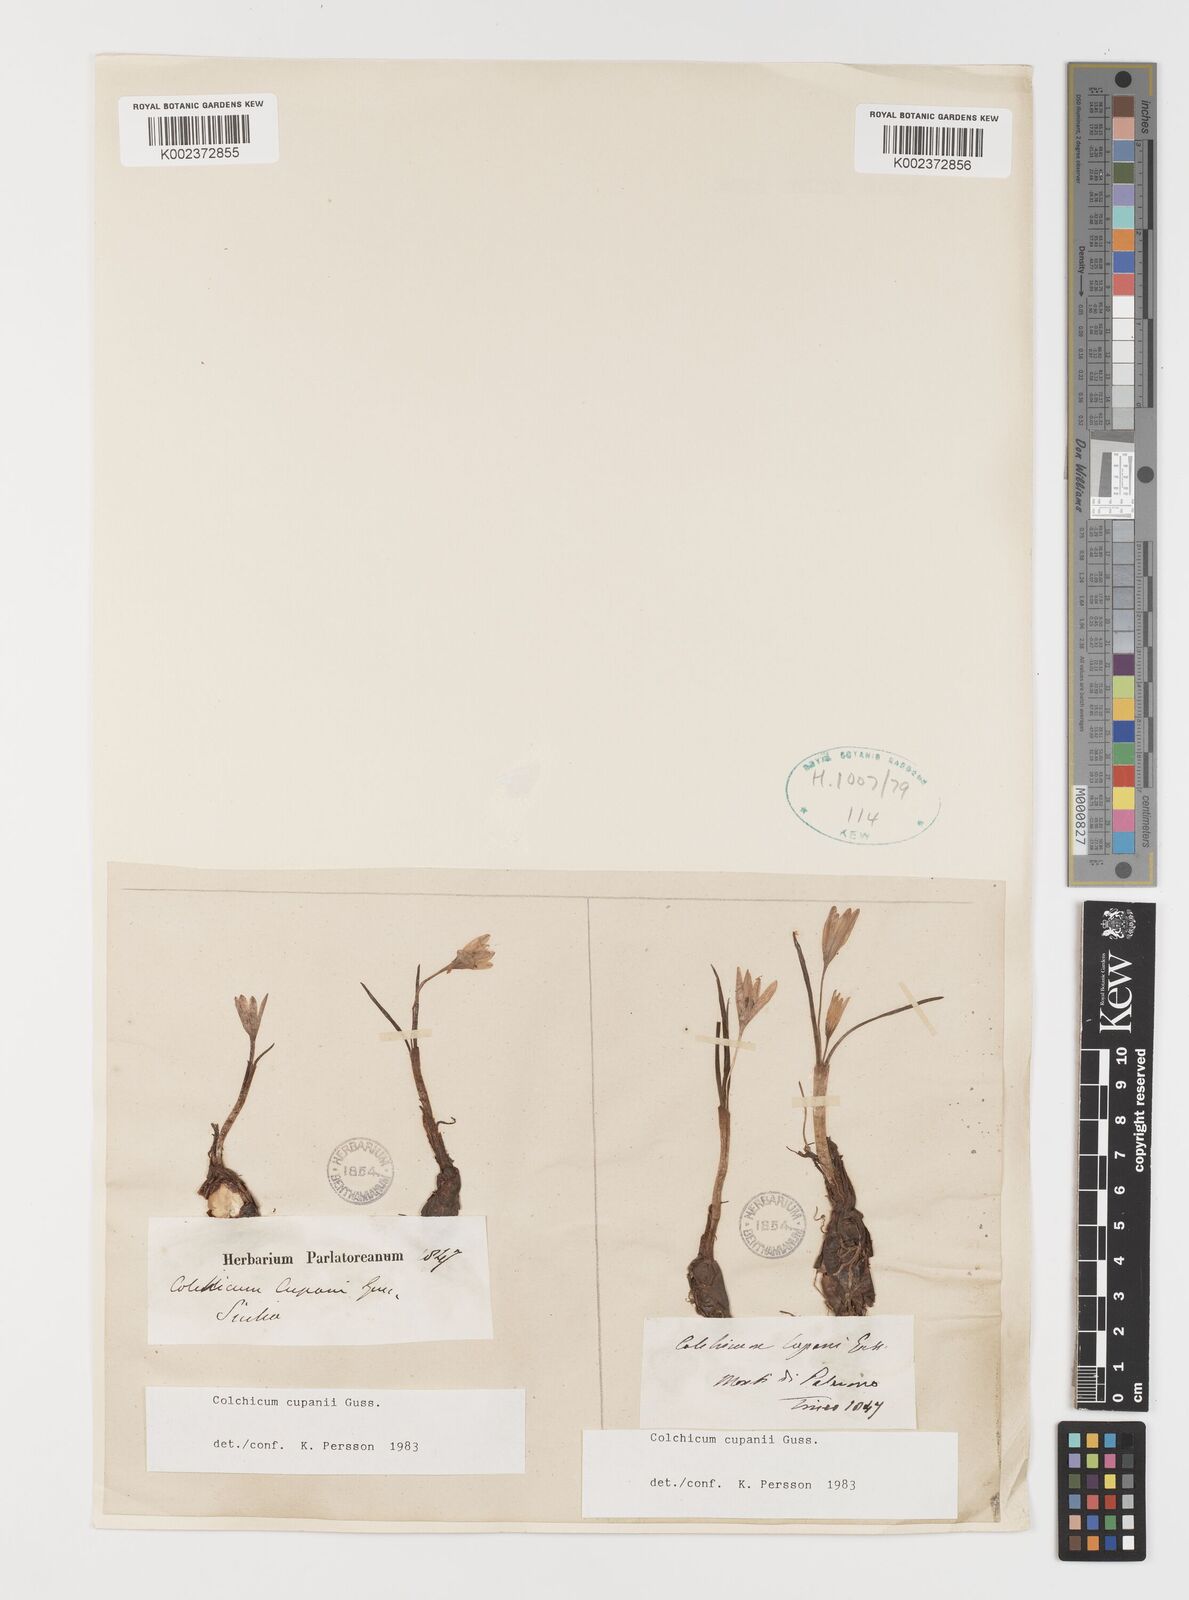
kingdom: Plantae
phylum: Tracheophyta
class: Liliopsida
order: Liliales
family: Colchicaceae
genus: Colchicum
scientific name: Colchicum cupanii
